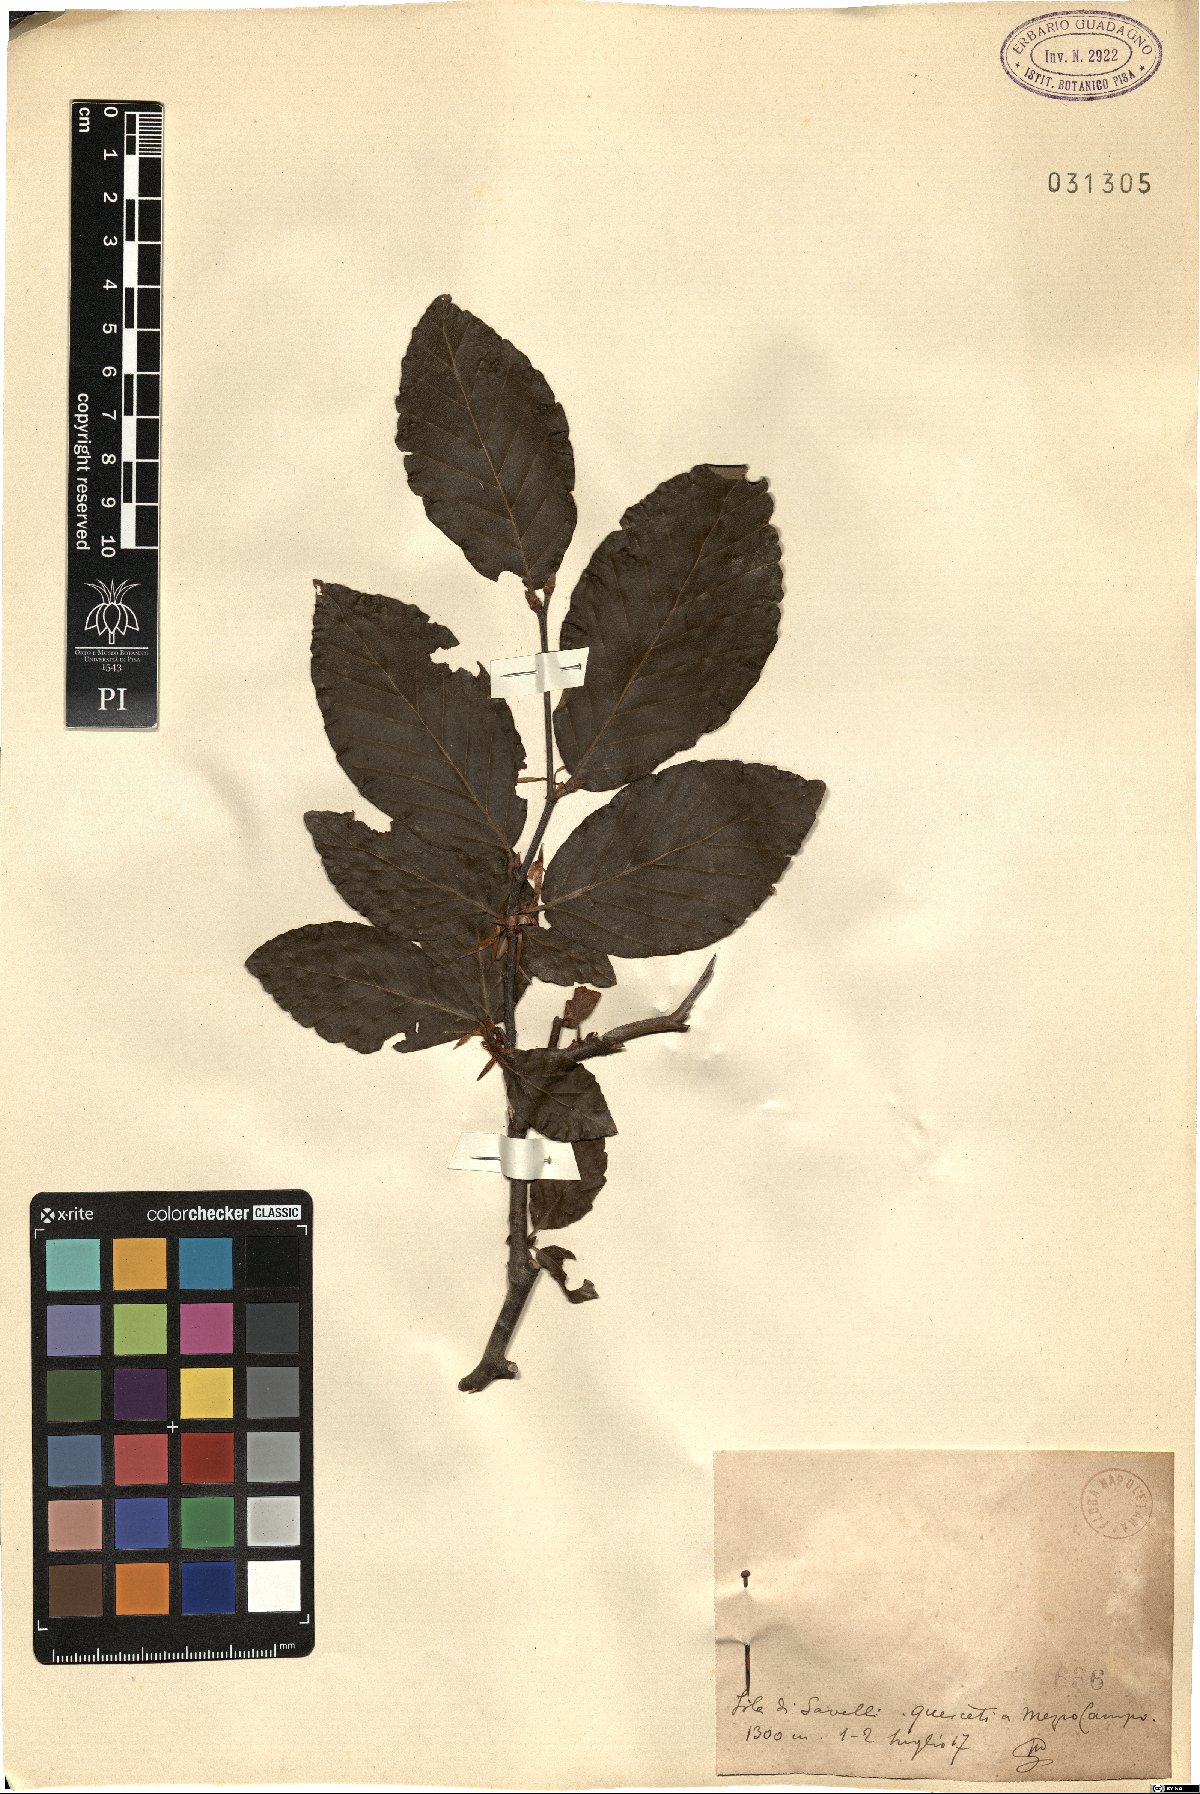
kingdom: Plantae
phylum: Tracheophyta
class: Magnoliopsida
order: Fagales
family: Fagaceae
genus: Fagus
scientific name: Fagus
